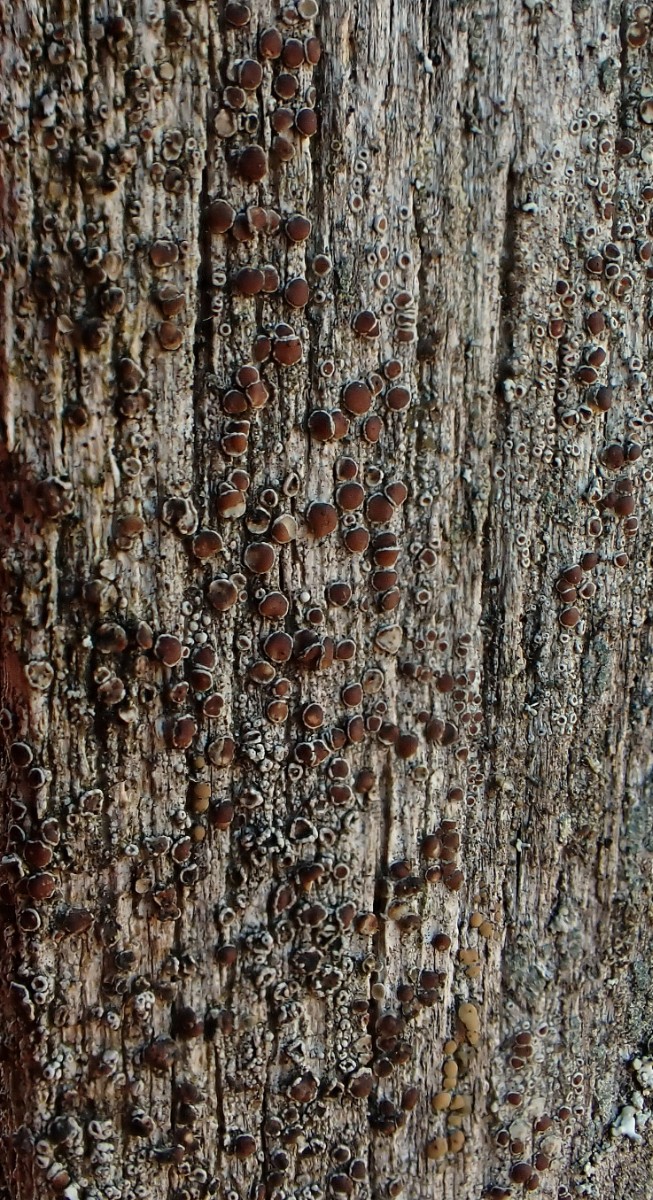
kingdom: Fungi
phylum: Ascomycota
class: Lecanoromycetes
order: Lecanorales
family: Lecanoraceae
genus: Lecanora
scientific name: Lecanora pulicaris
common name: almindelig kantskivelav
